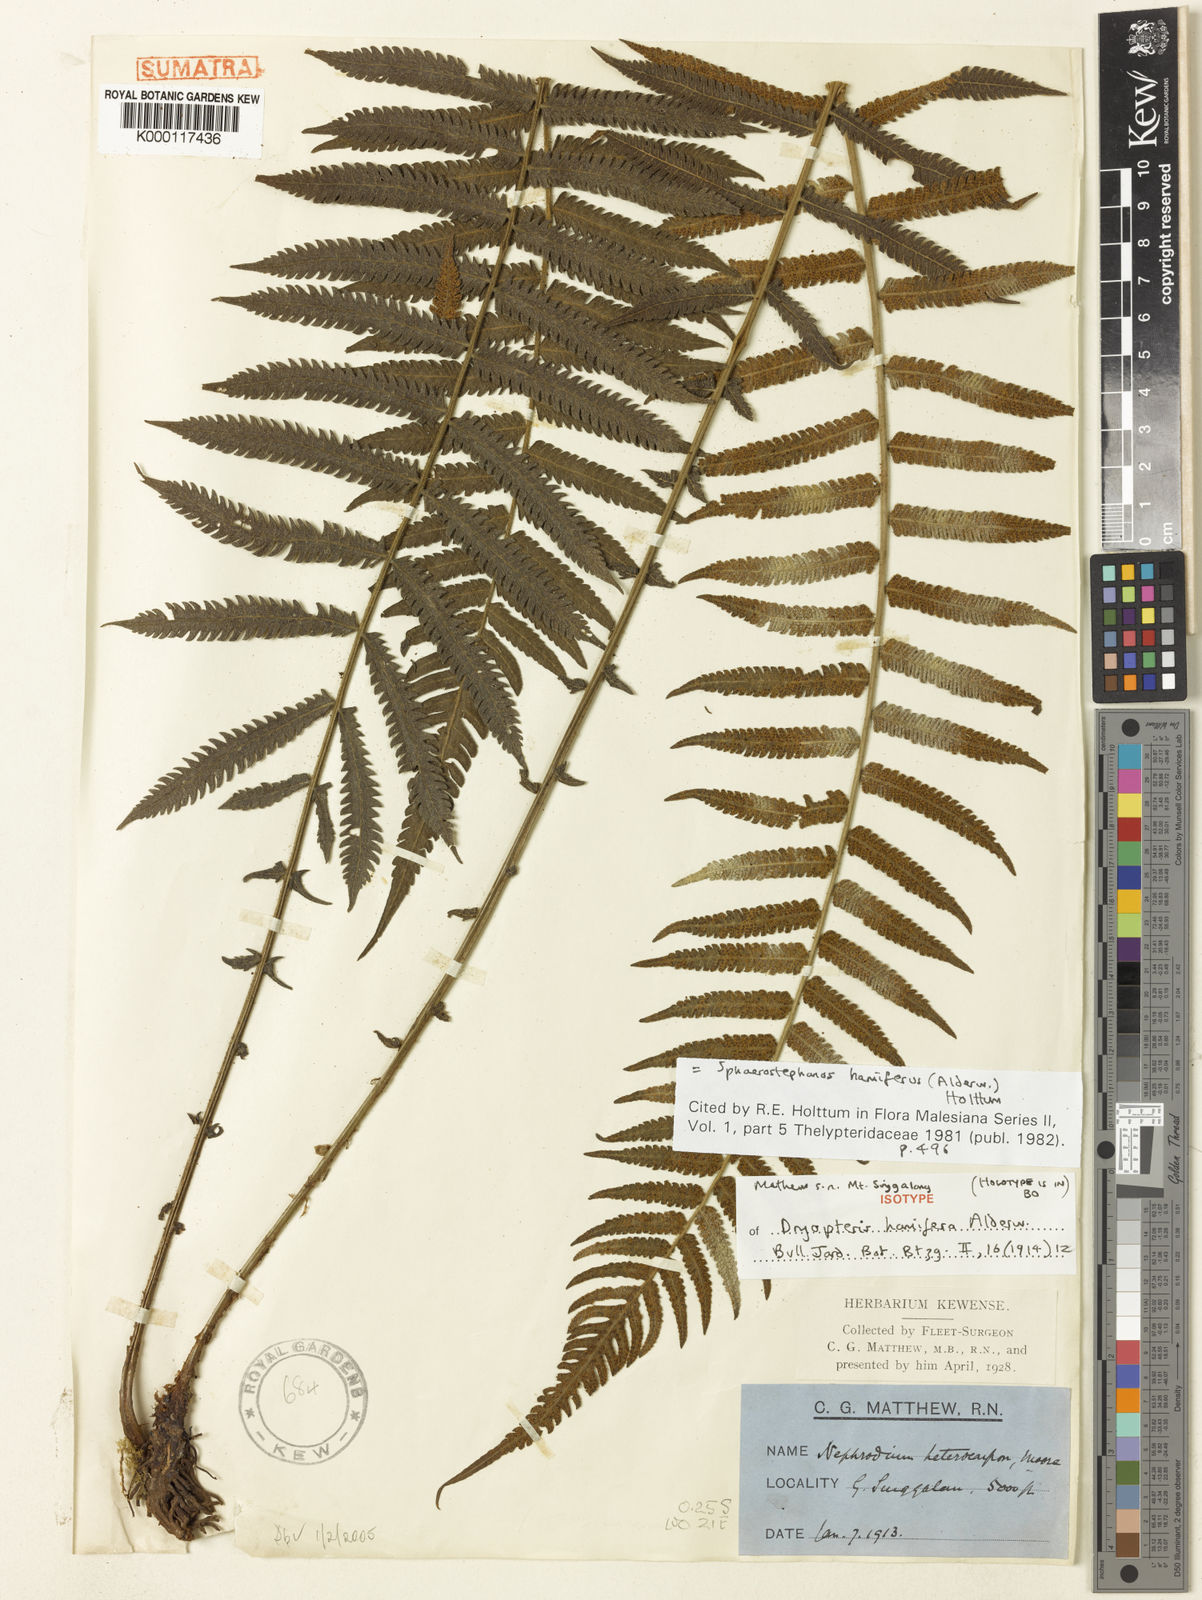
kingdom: Plantae
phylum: Tracheophyta
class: Polypodiopsida
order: Polypodiales
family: Thelypteridaceae
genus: Sphaerostephanos
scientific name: Sphaerostephanos hamiferus
